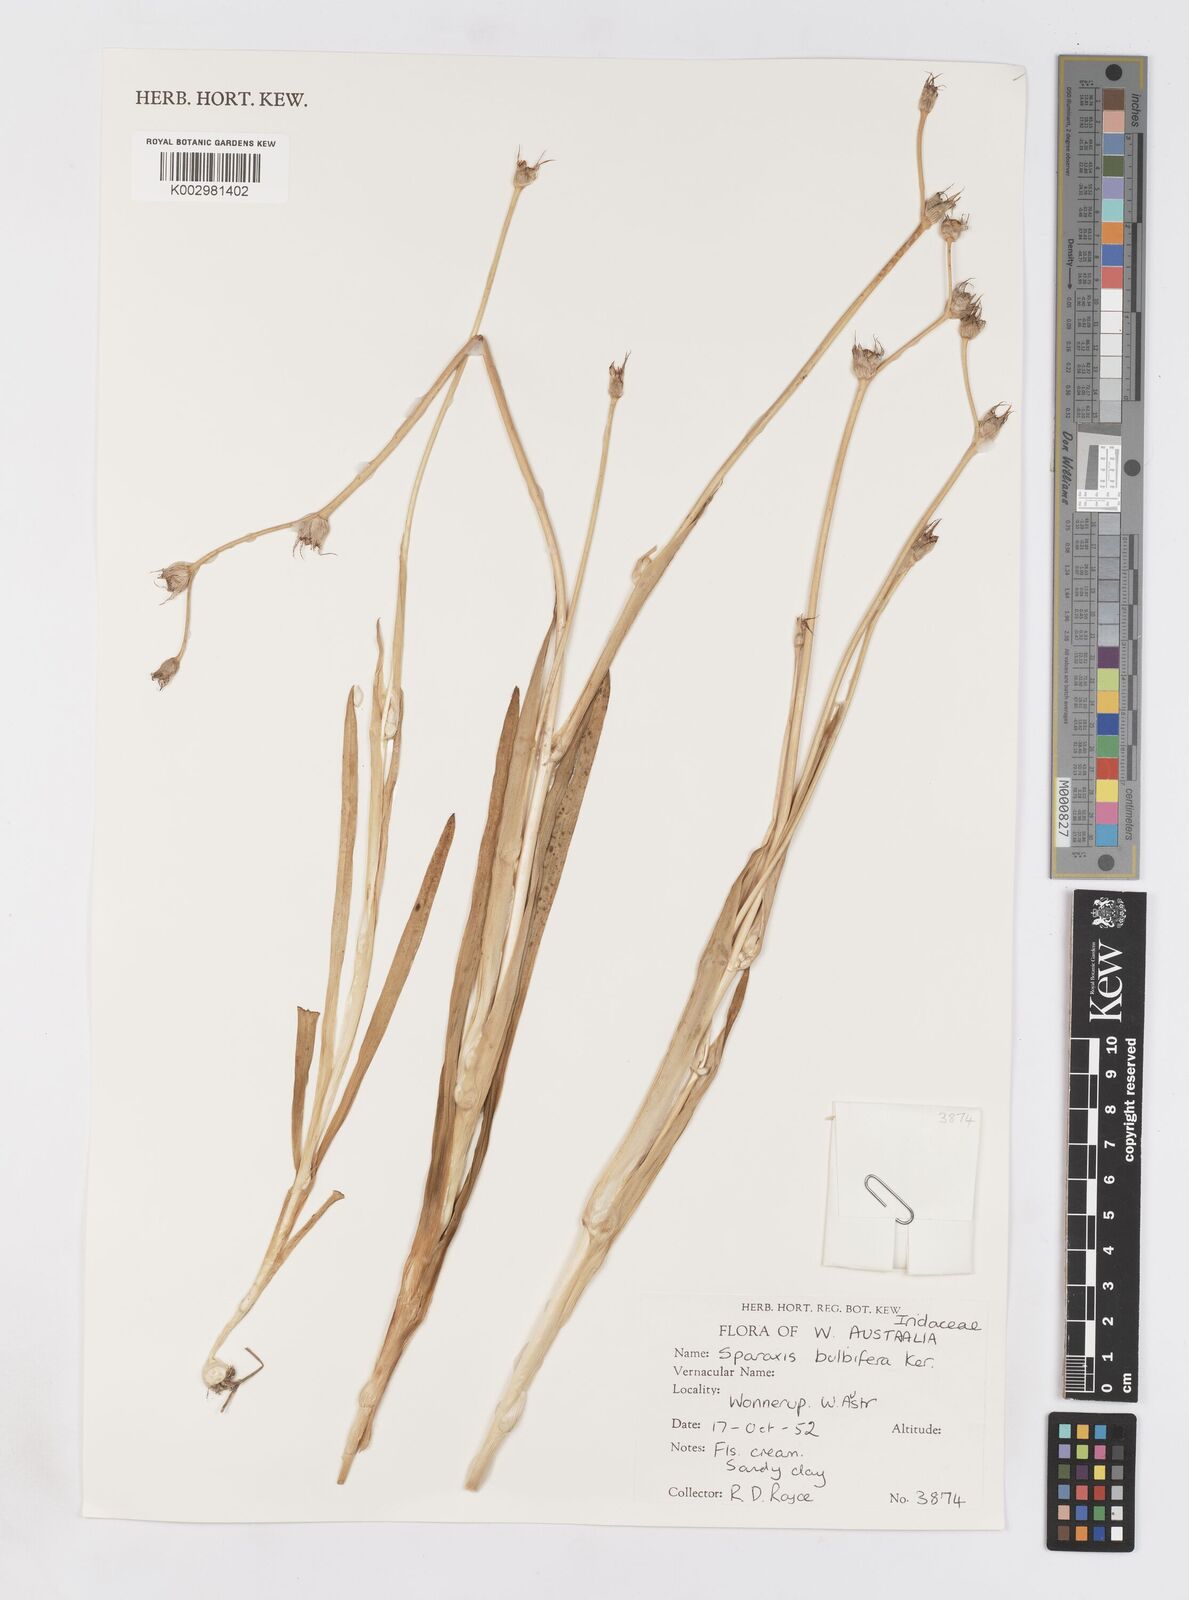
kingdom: Plantae
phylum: Tracheophyta
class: Liliopsida
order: Asparagales
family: Iridaceae
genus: Sparaxis
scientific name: Sparaxis bulbifera
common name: Harlequin-flower
